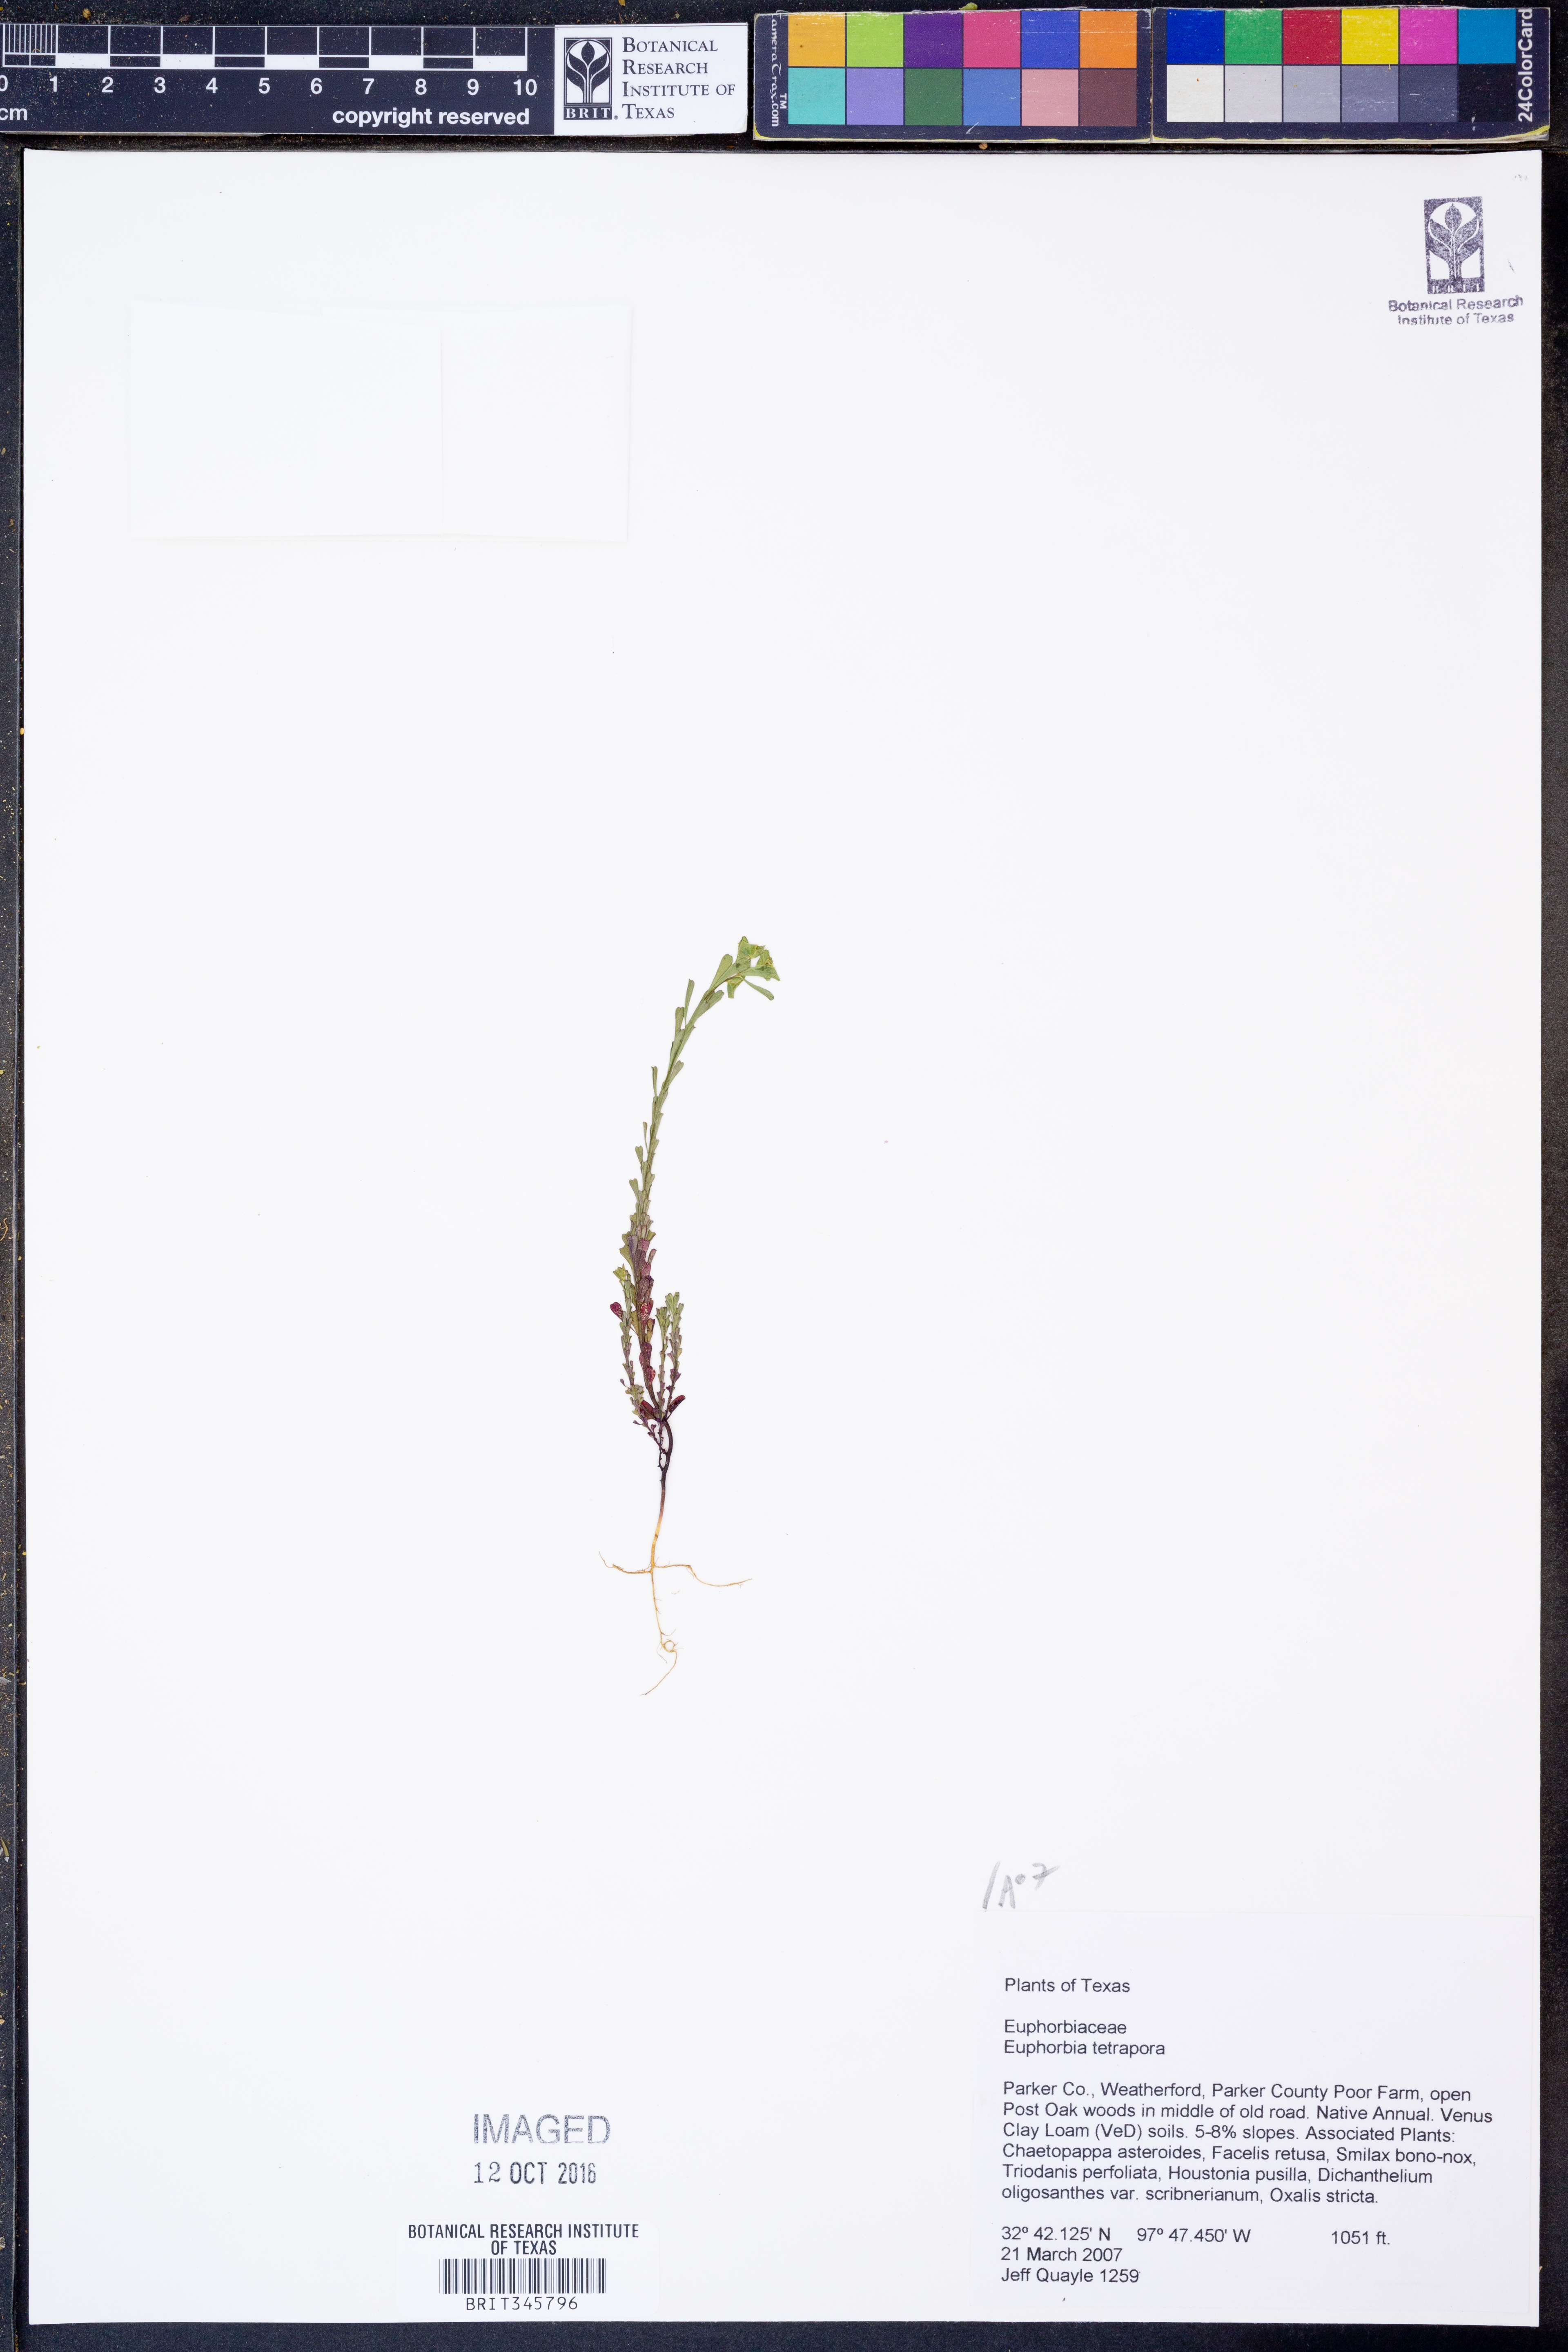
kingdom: Plantae
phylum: Tracheophyta
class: Magnoliopsida
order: Malpighiales
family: Euphorbiaceae
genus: Euphorbia
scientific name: Euphorbia tetrapora
